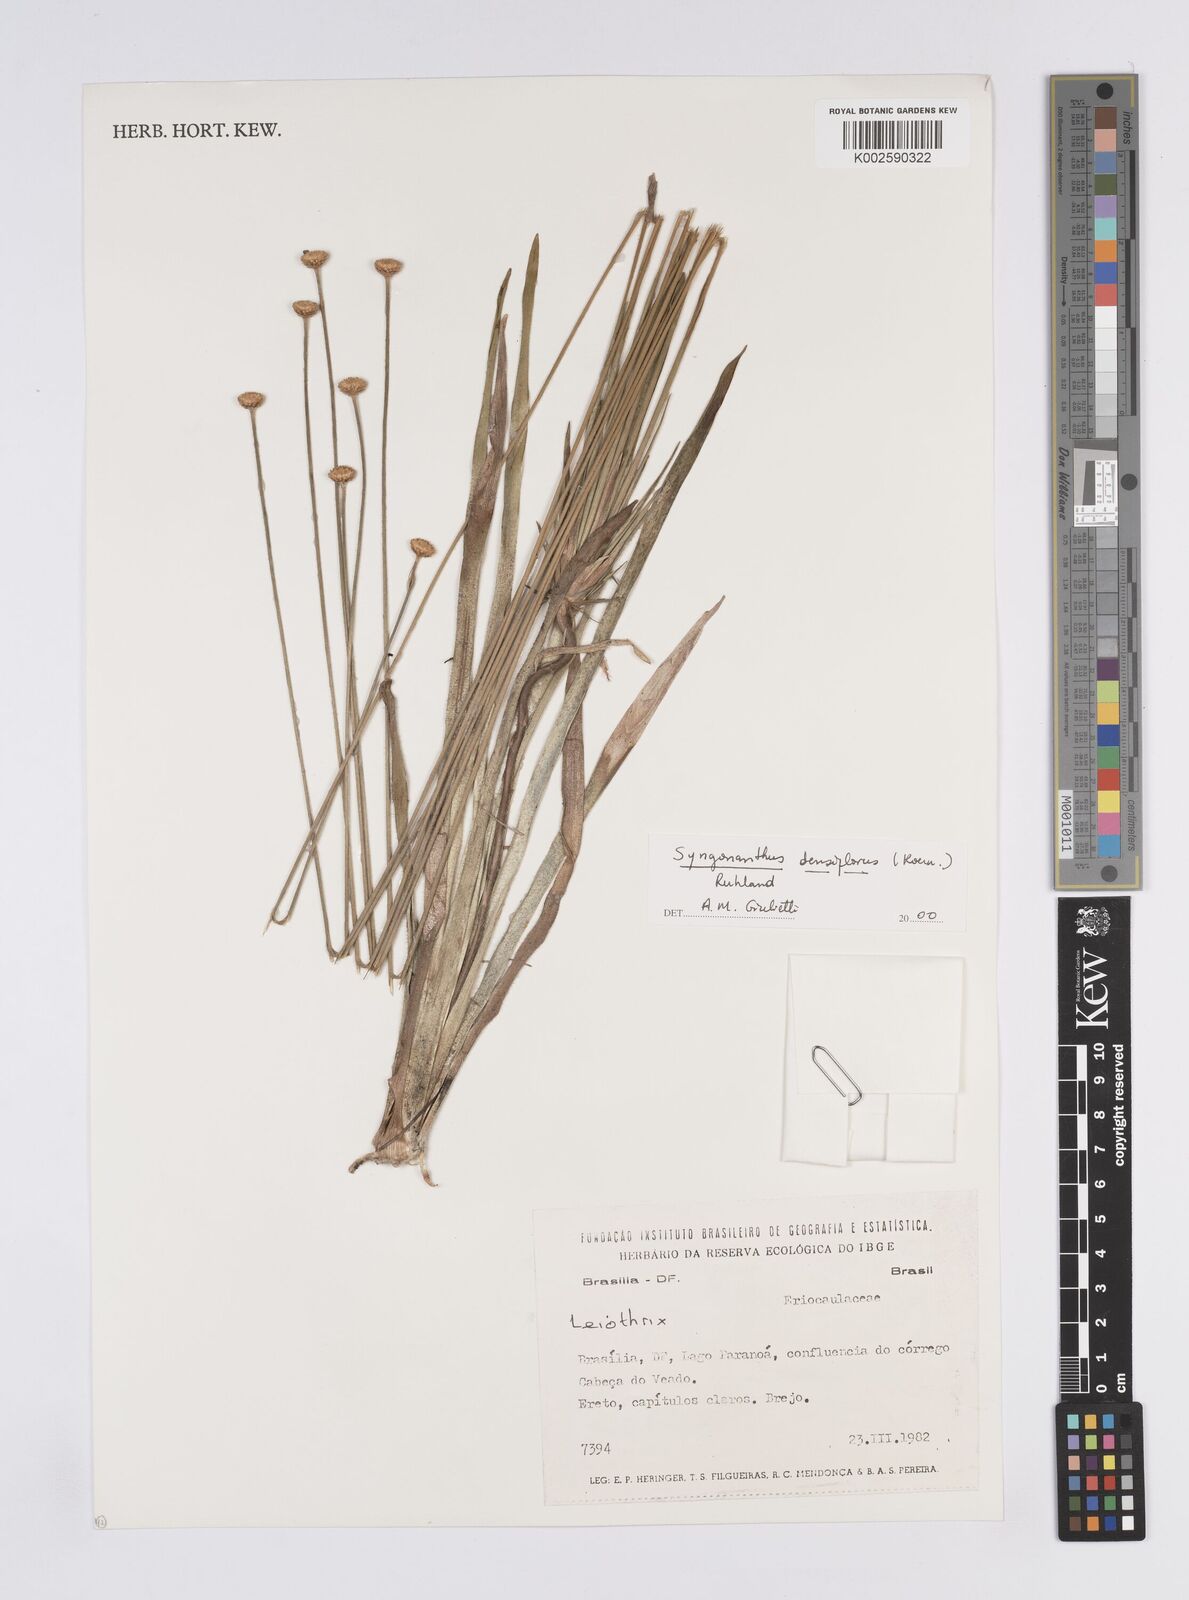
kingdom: Plantae
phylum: Tracheophyta
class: Liliopsida
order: Poales
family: Eriocaulaceae
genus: Syngonanthus
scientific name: Syngonanthus densiflorus
